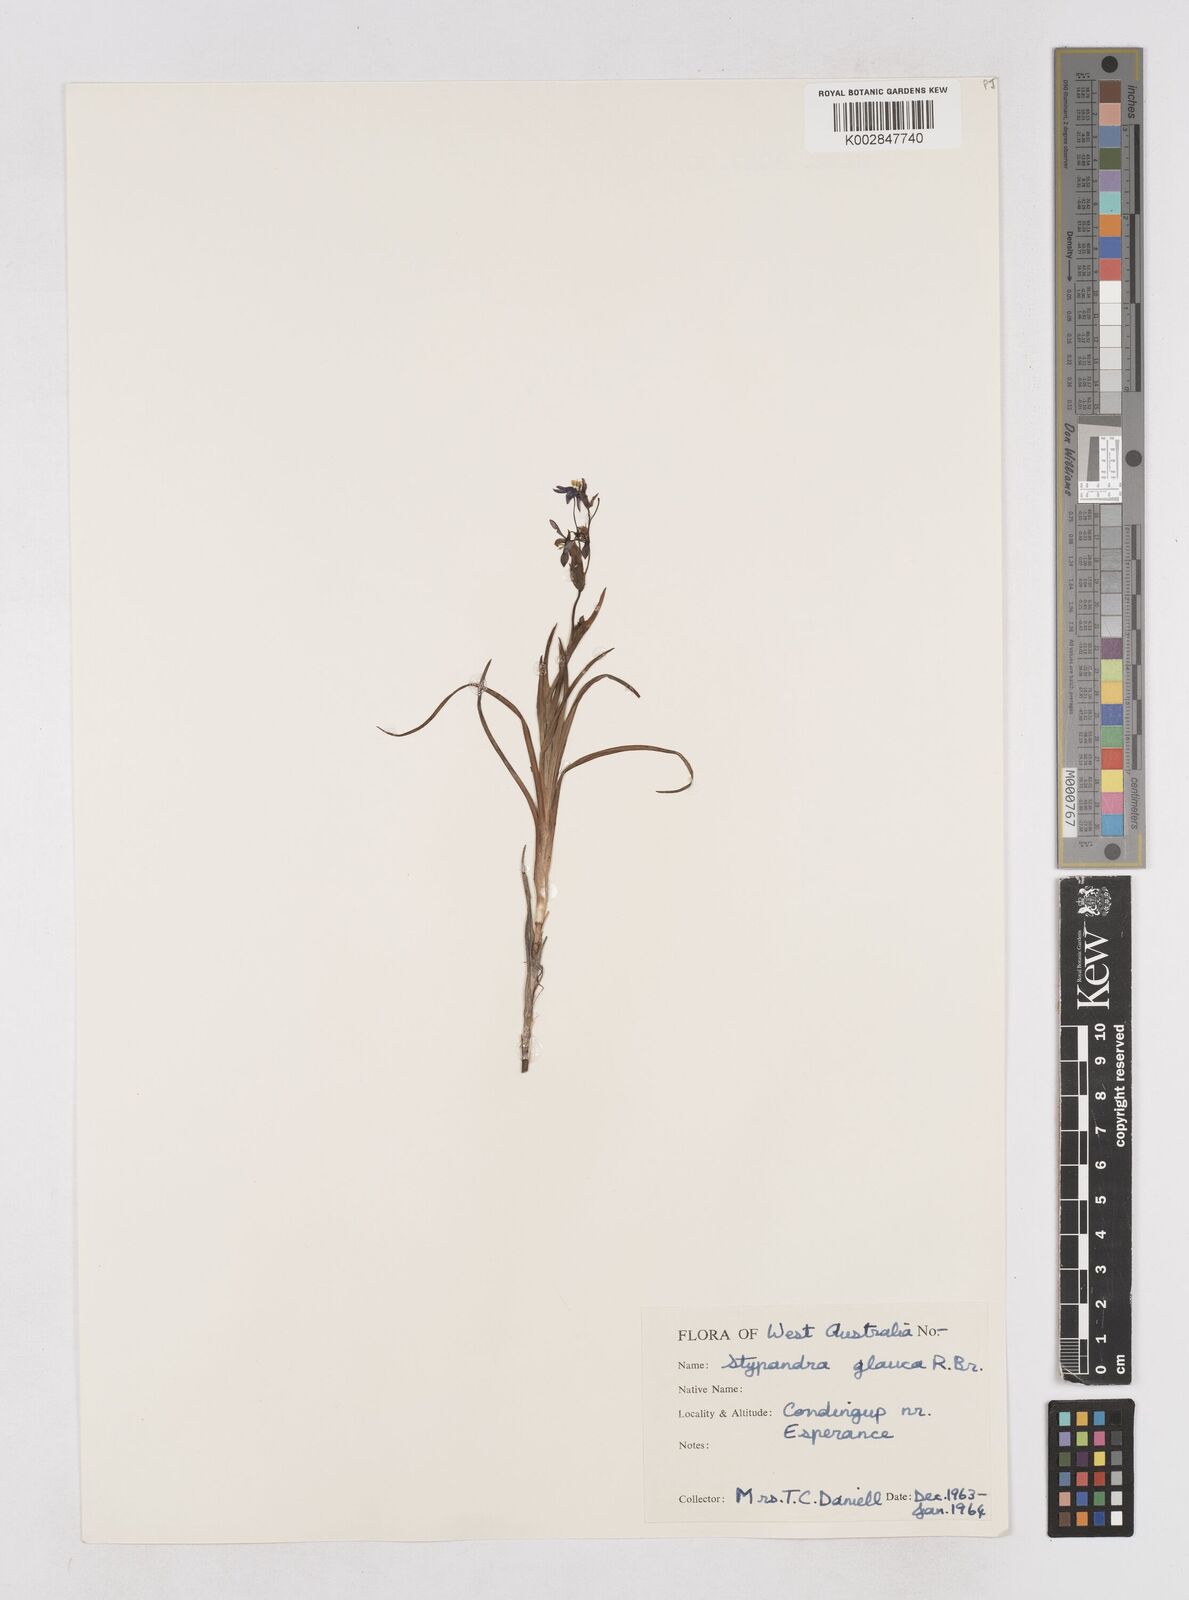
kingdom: Plantae
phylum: Tracheophyta
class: Liliopsida
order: Asparagales
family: Asphodelaceae
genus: Stypandra
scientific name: Stypandra glauca
